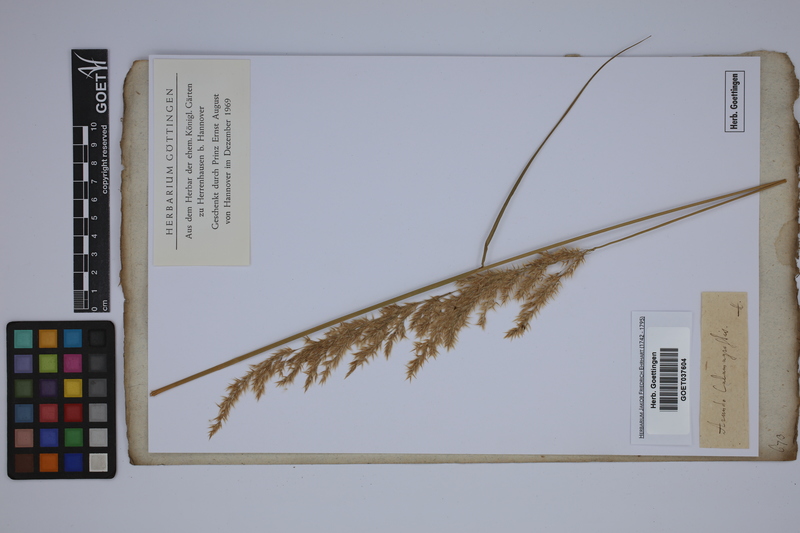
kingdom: Plantae
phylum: Tracheophyta
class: Liliopsida
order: Poales
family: Poaceae
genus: Arundo
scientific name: Arundo calamagrostis
